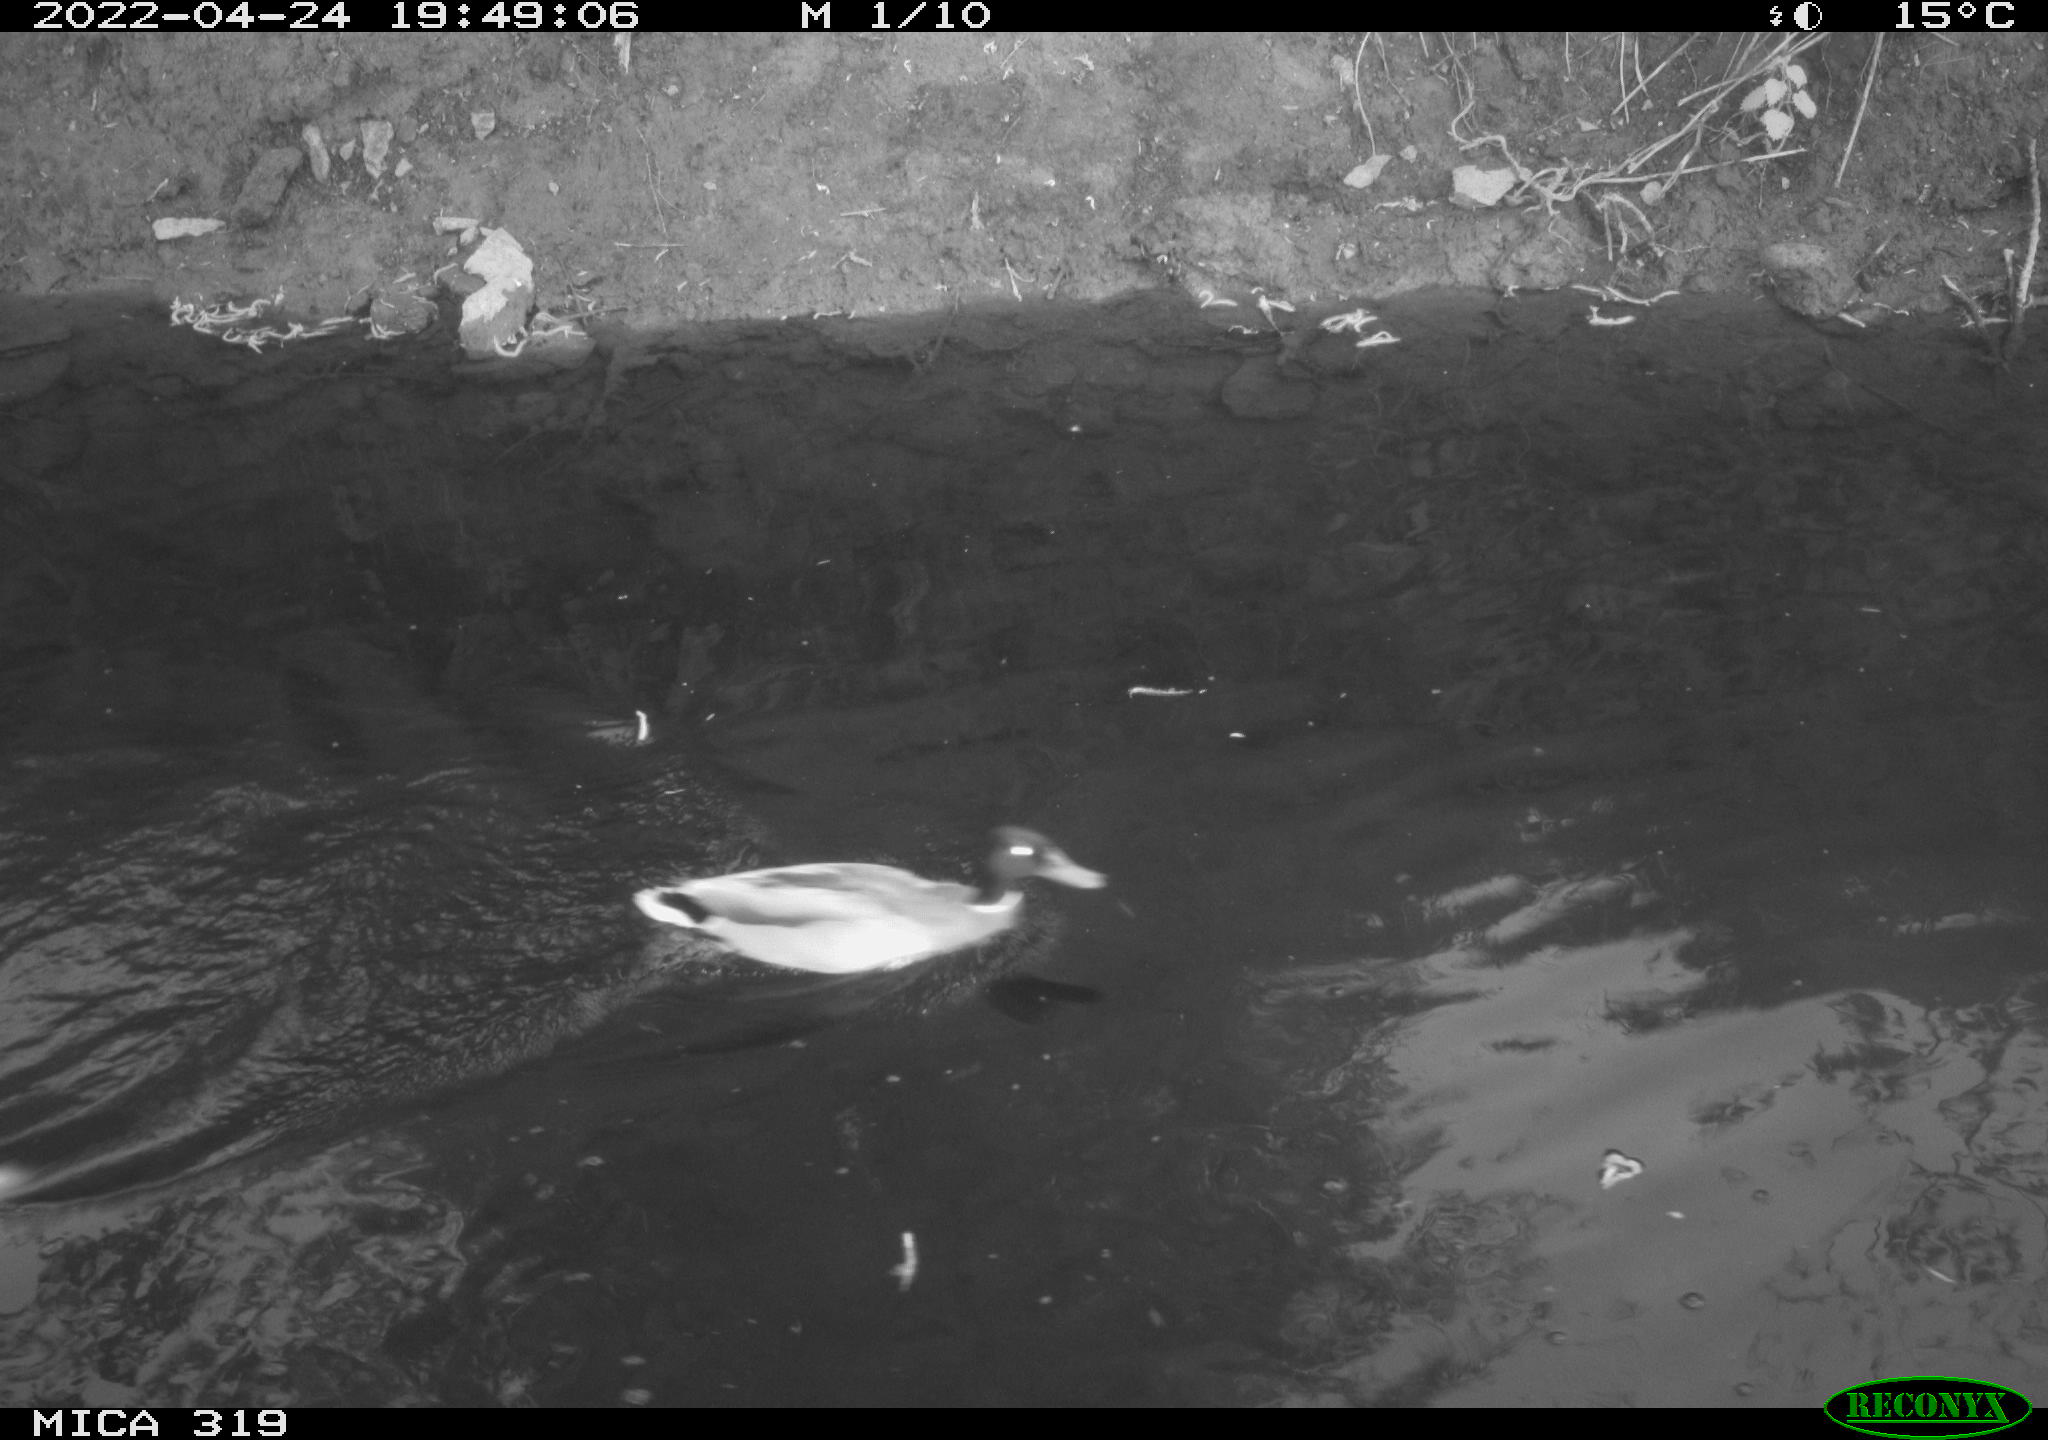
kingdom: Animalia
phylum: Chordata
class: Aves
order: Anseriformes
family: Anatidae
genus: Anas
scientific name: Anas platyrhynchos
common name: Mallard
